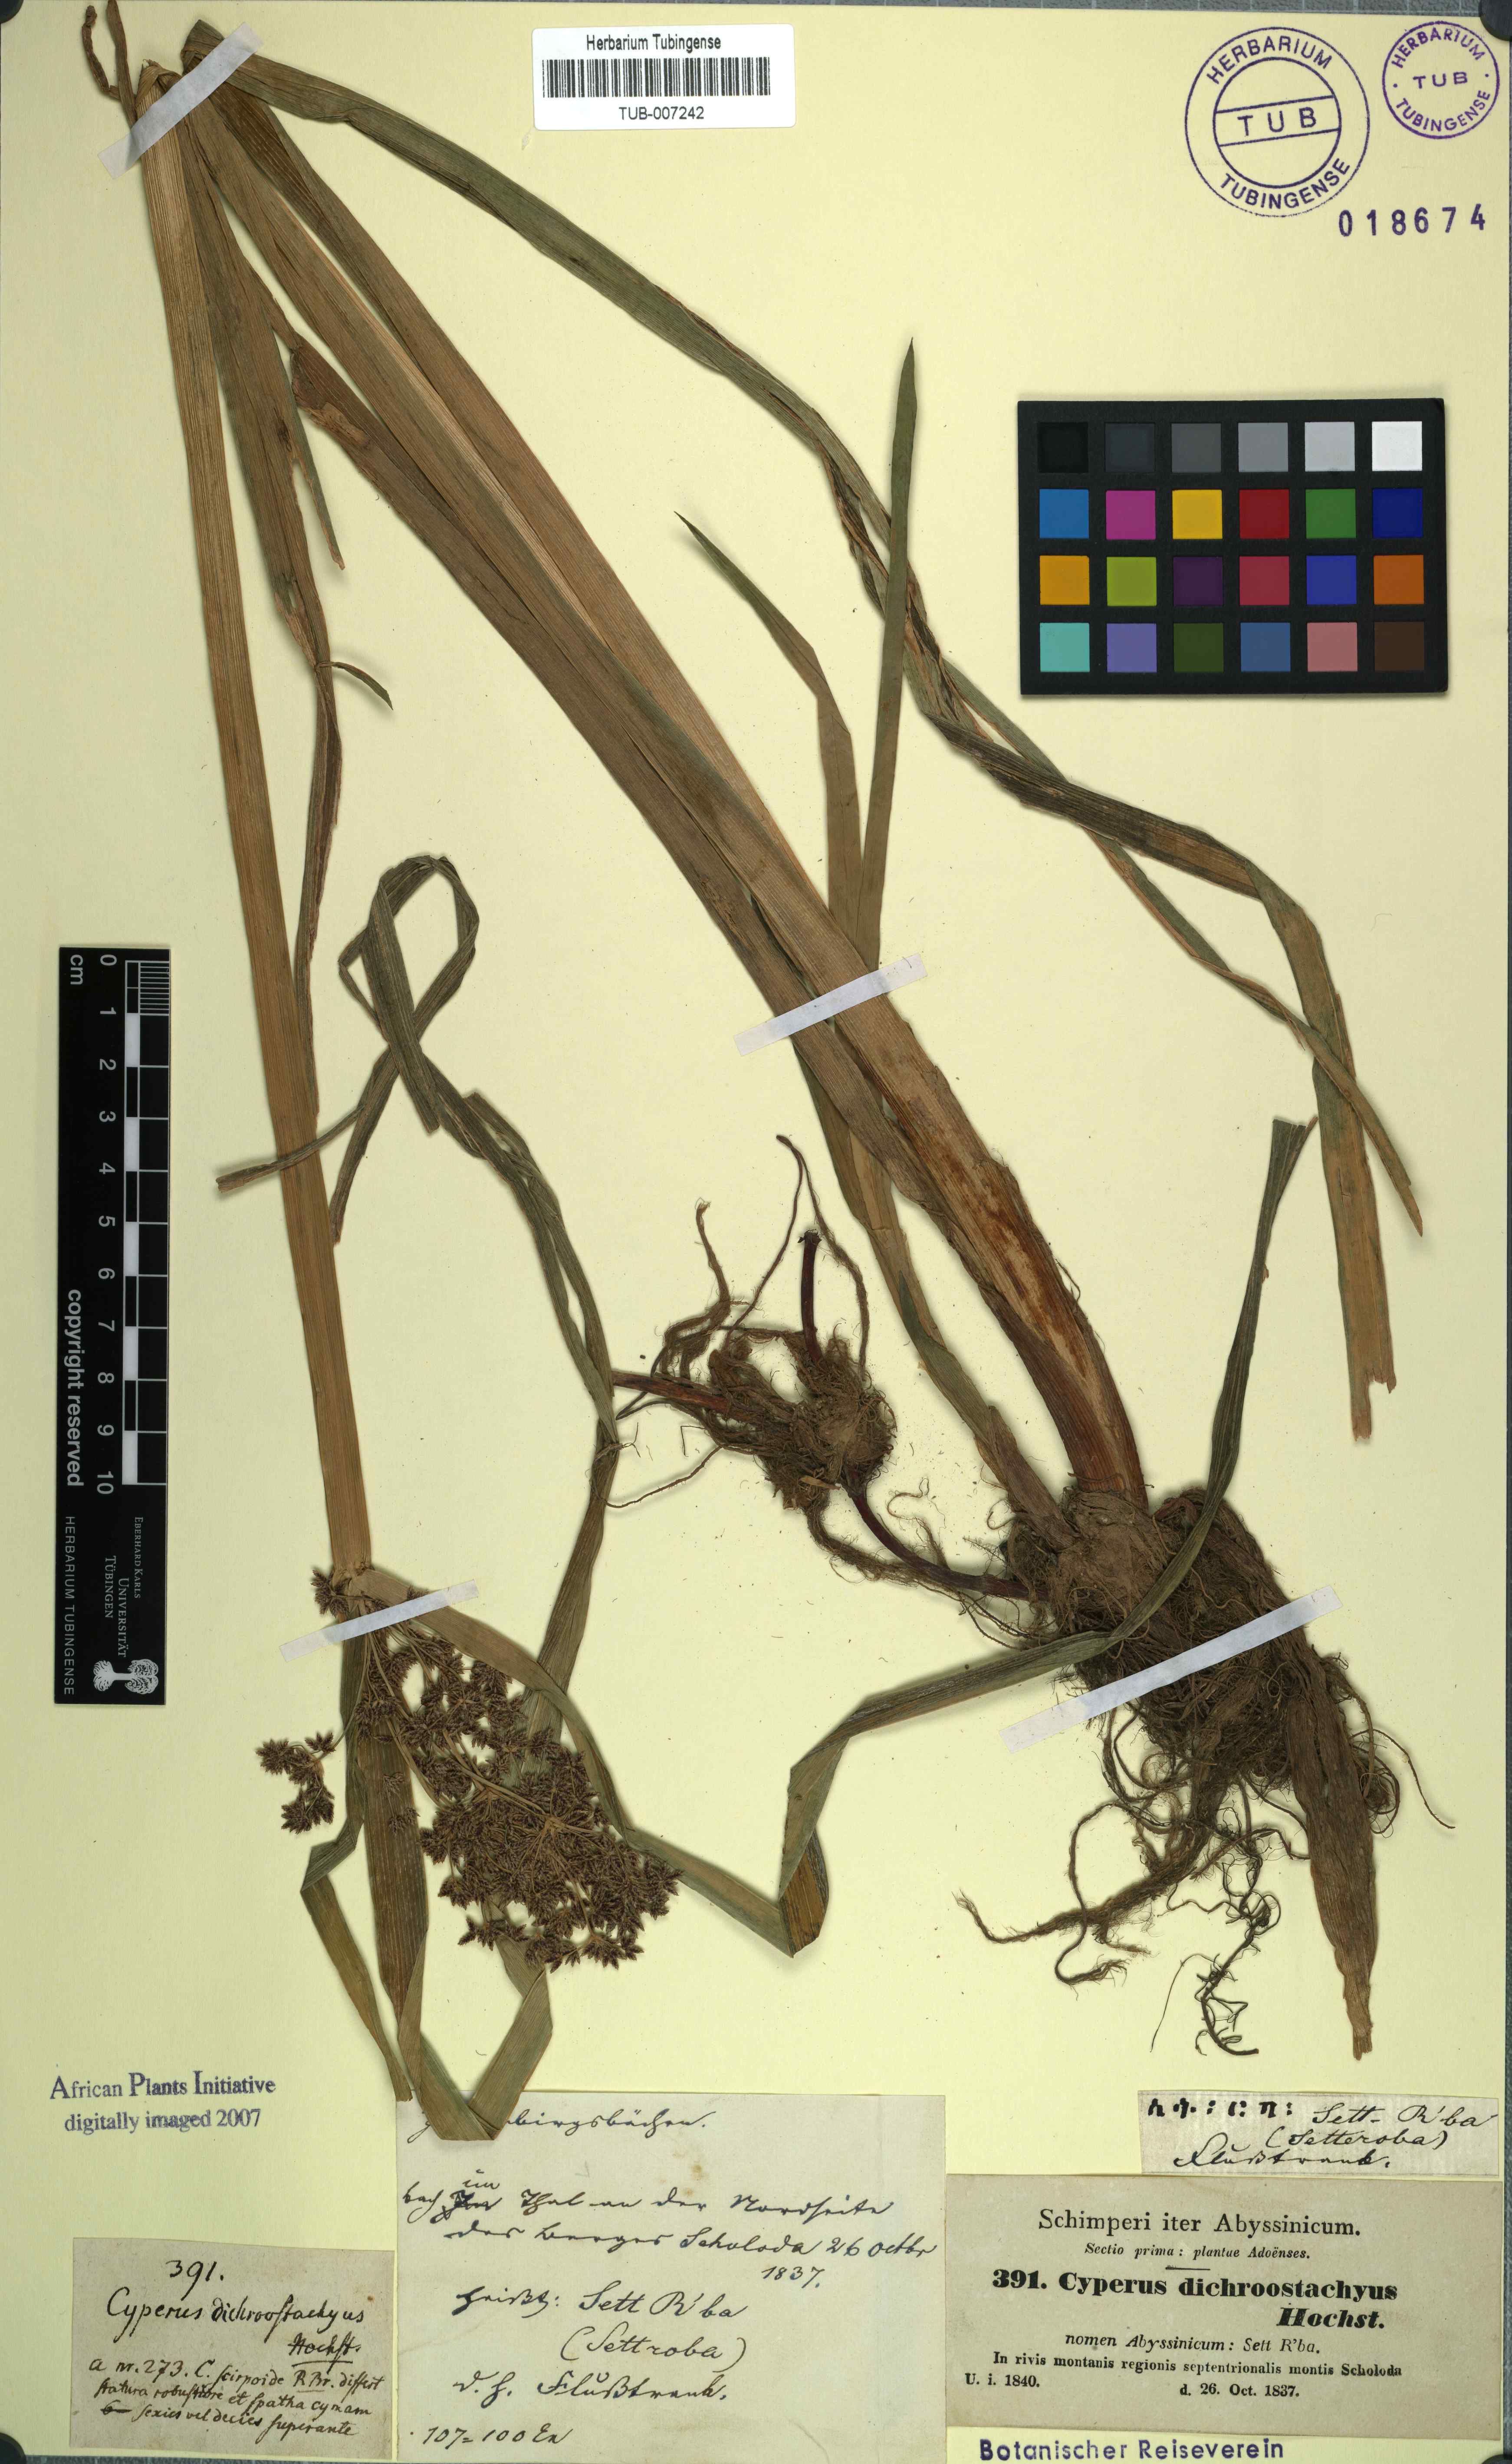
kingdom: Plantae
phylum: Tracheophyta
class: Liliopsida
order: Poales
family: Cyperaceae
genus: Cyperus
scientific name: Cyperus dichrostachyus
